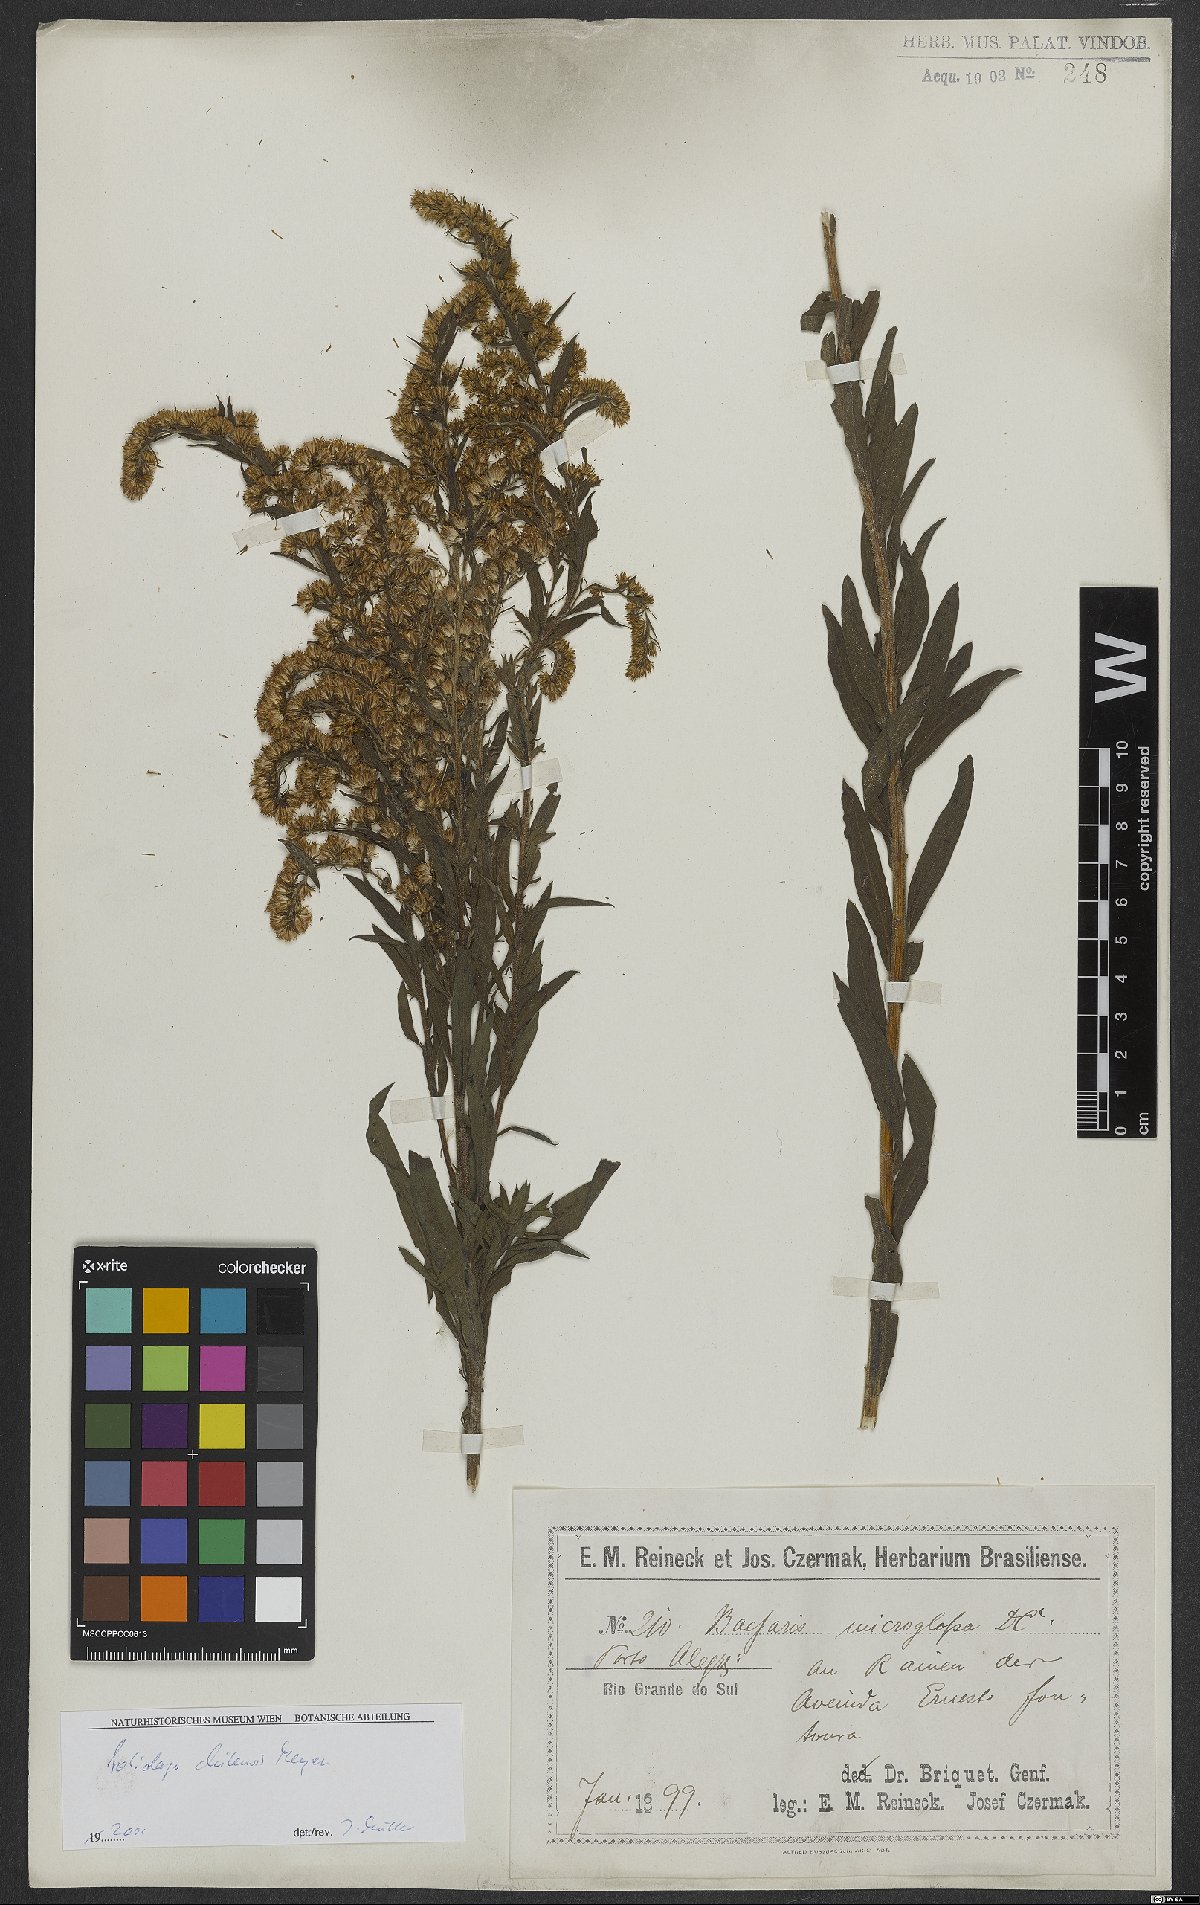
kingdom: Plantae
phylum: Tracheophyta
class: Magnoliopsida
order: Asterales
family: Asteraceae
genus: Solidago
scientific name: Solidago chilensis
